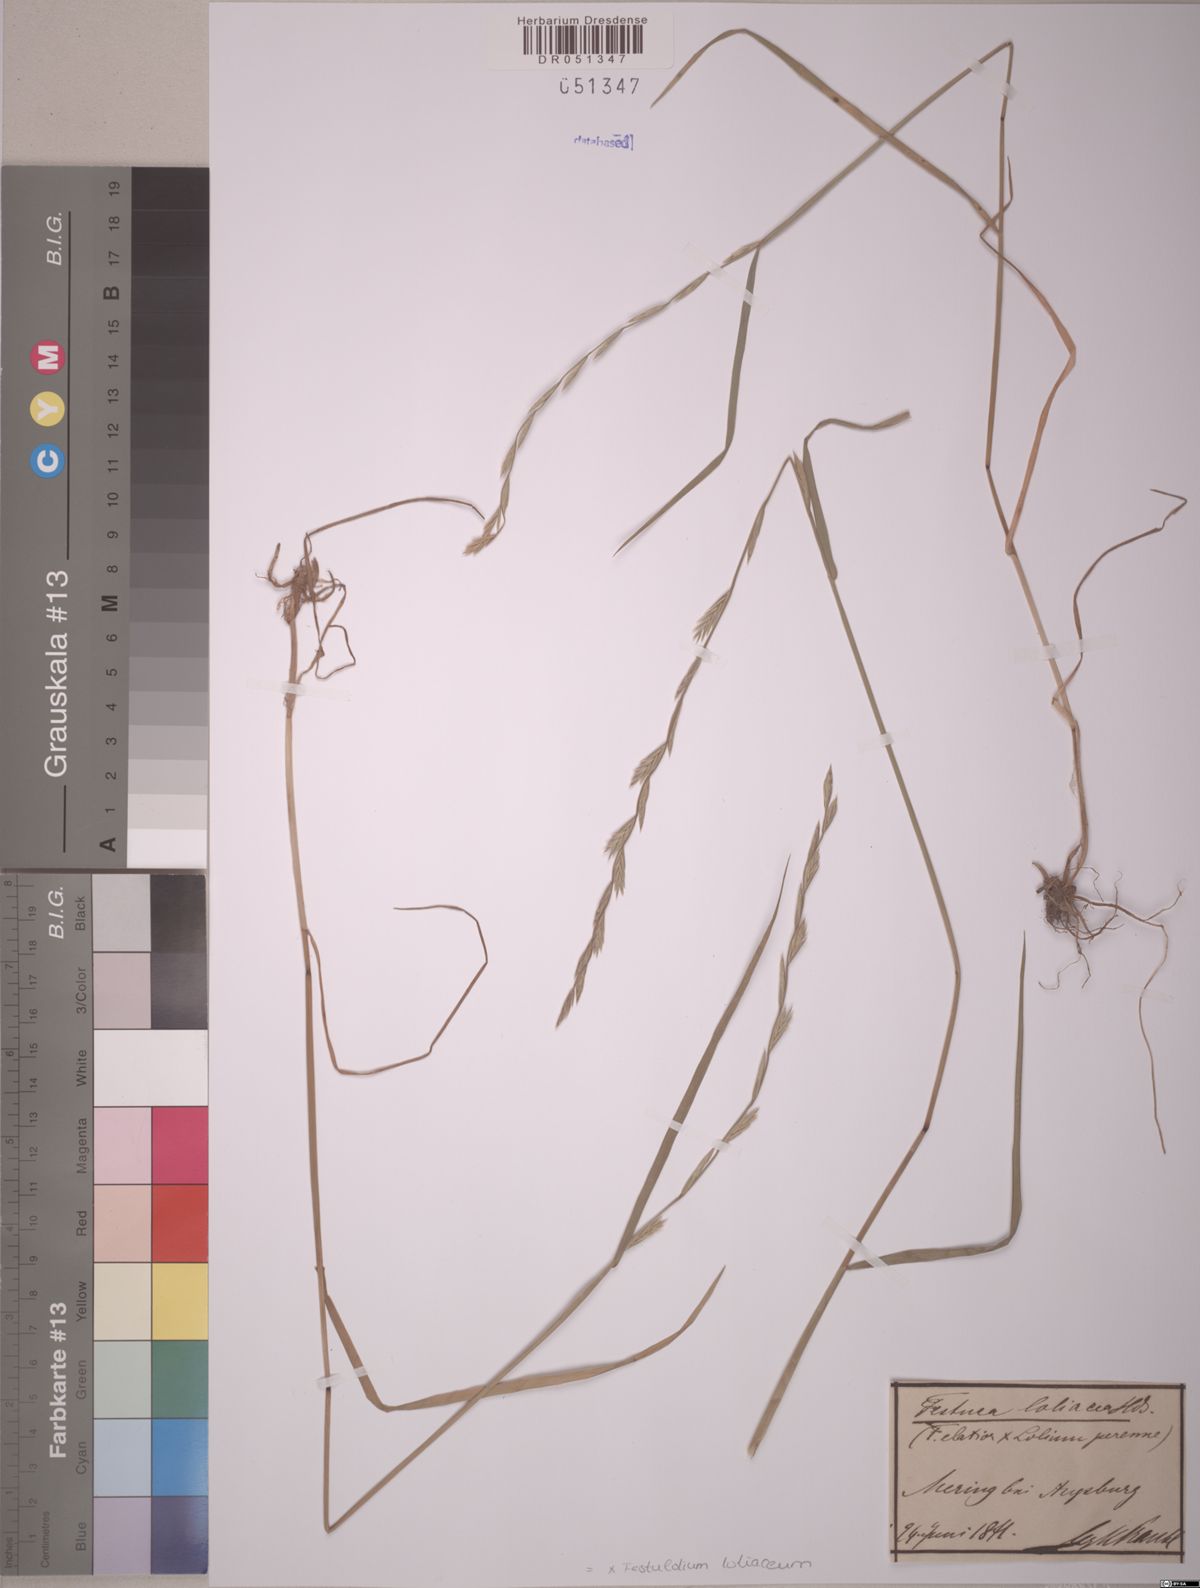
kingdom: Plantae
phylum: Tracheophyta
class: Liliopsida
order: Poales
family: Poaceae
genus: Lolium
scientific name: Lolium elongatum
